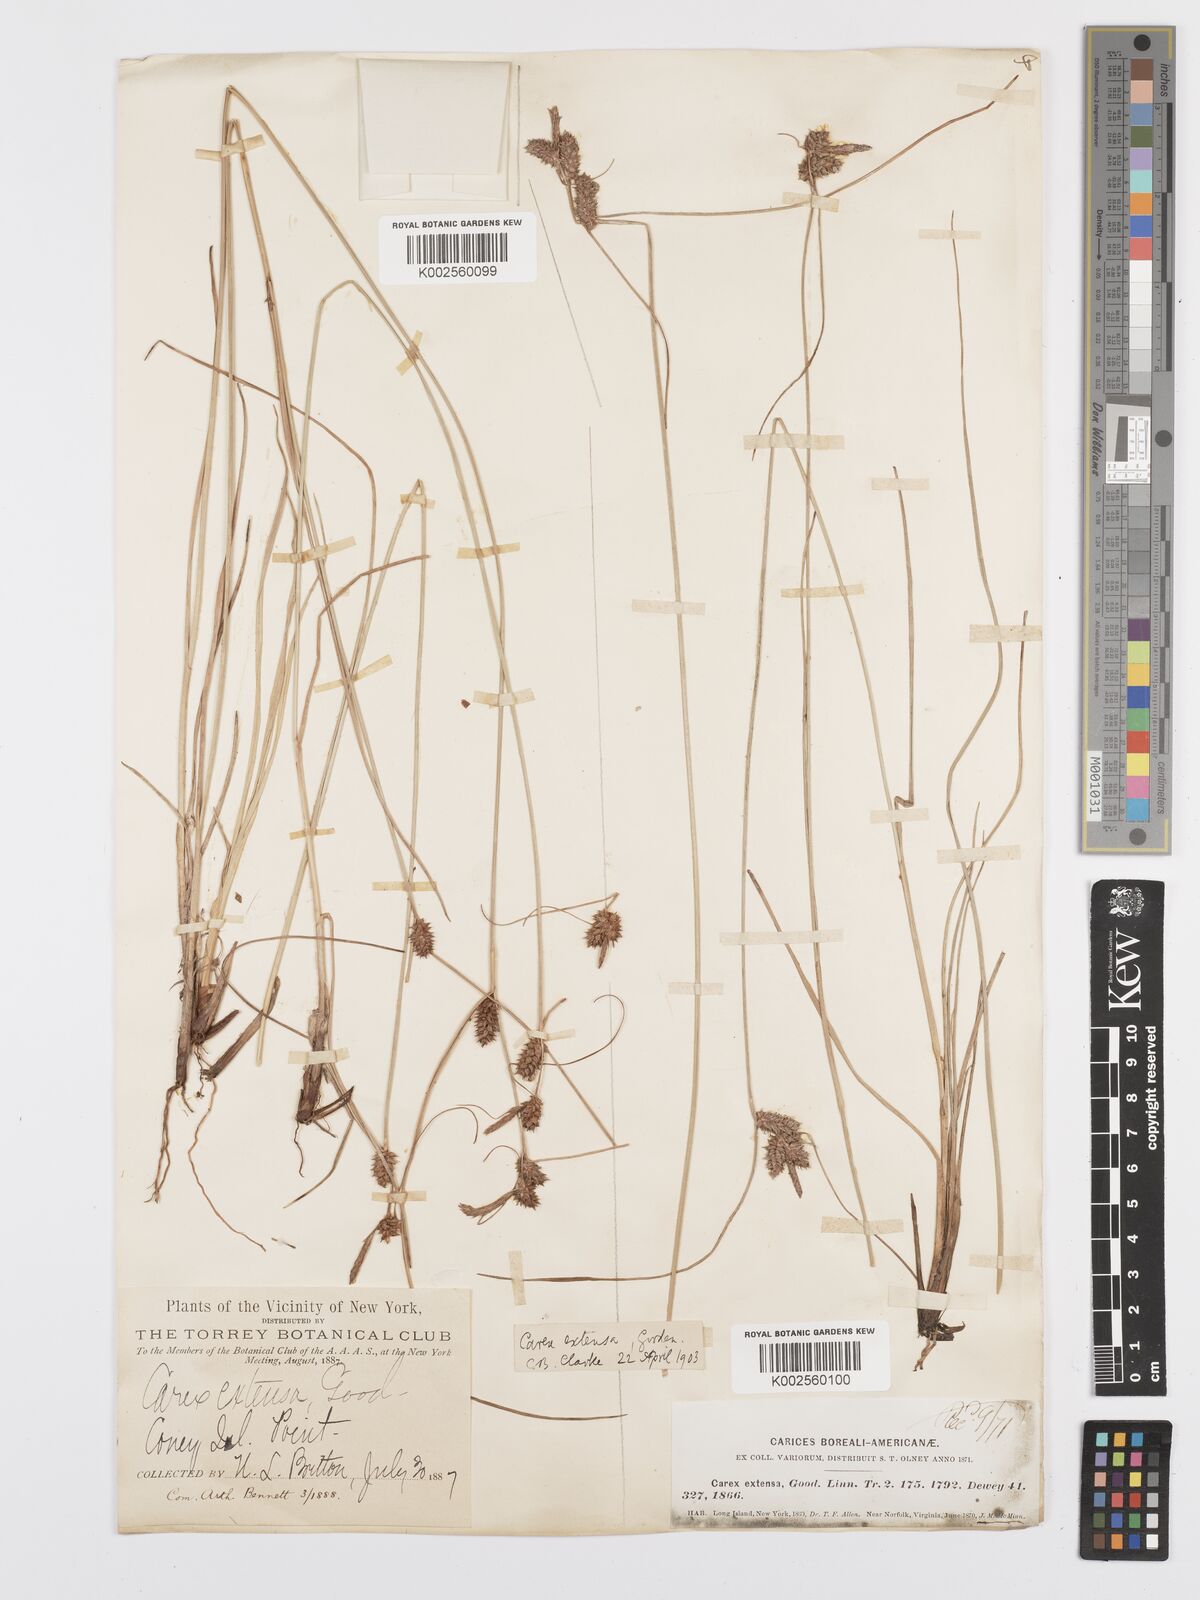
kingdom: Plantae
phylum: Tracheophyta
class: Liliopsida
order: Poales
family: Cyperaceae
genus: Carex
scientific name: Carex diluta
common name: Sedge
